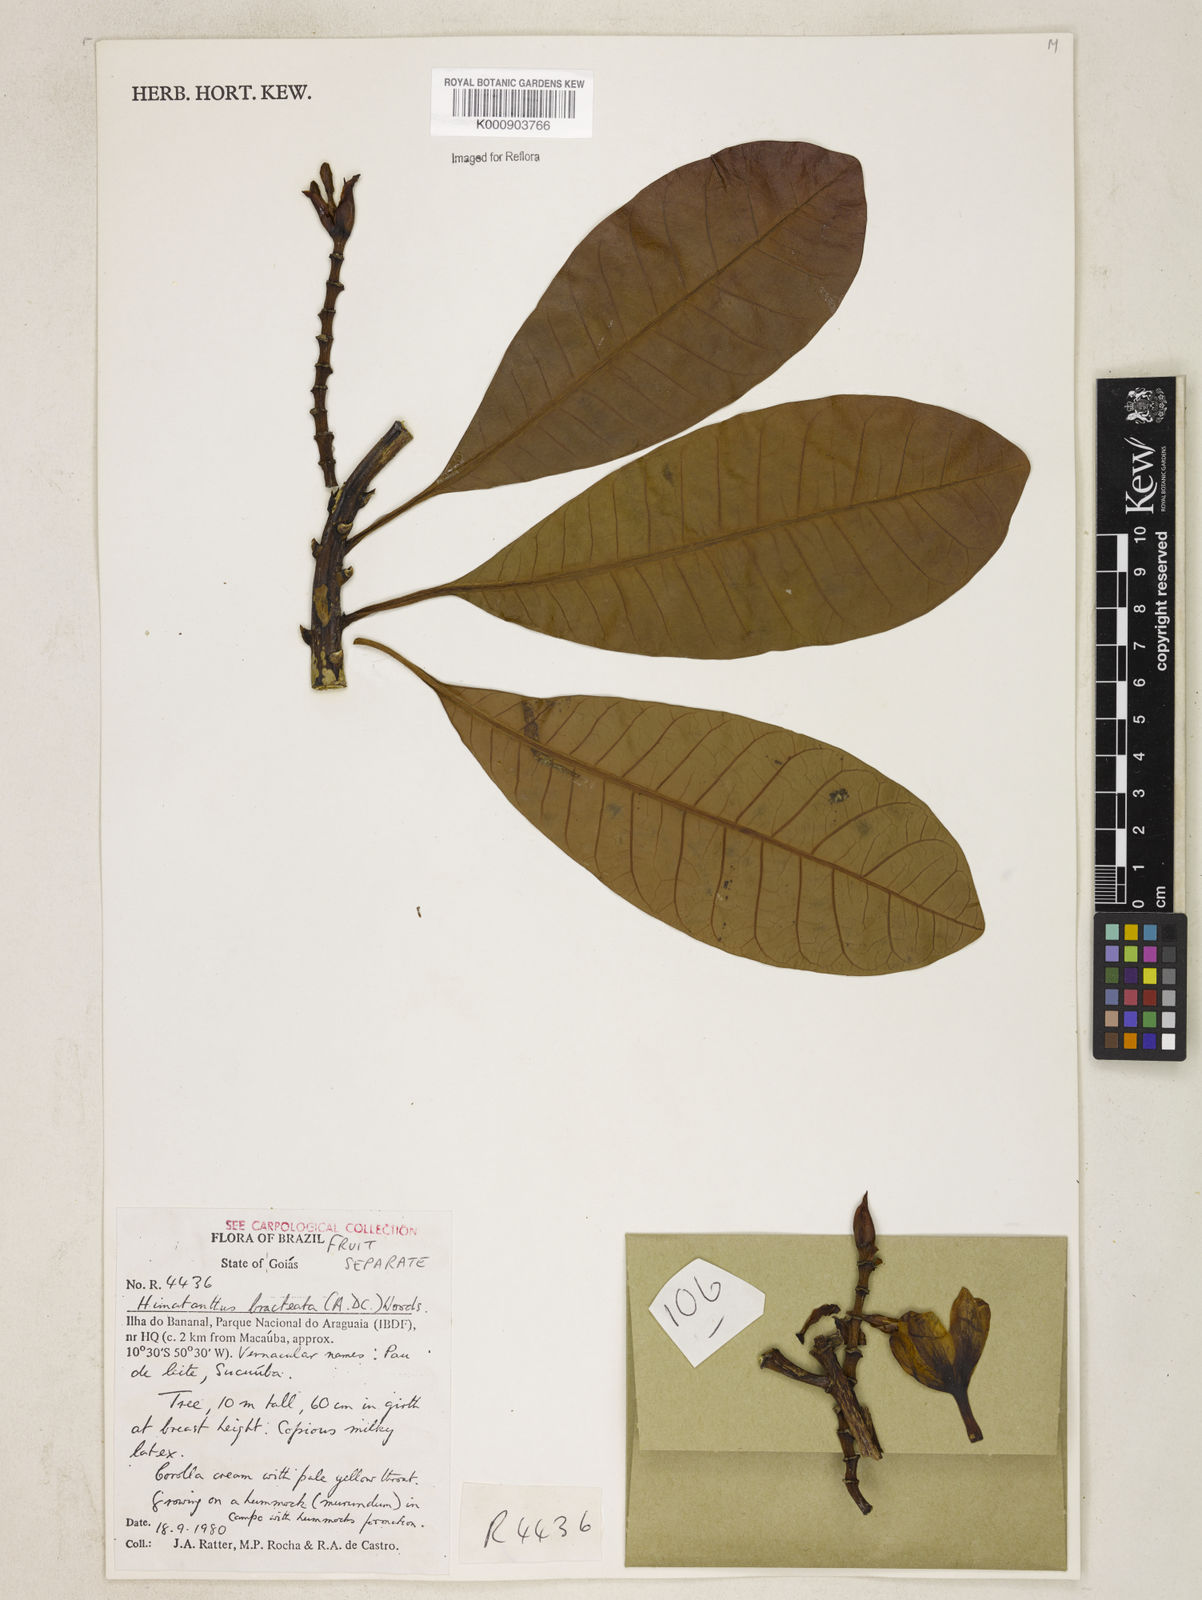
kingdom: Plantae
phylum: Tracheophyta
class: Magnoliopsida
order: Gentianales
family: Apocynaceae
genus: Himatanthus
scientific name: Himatanthus bracteatus
